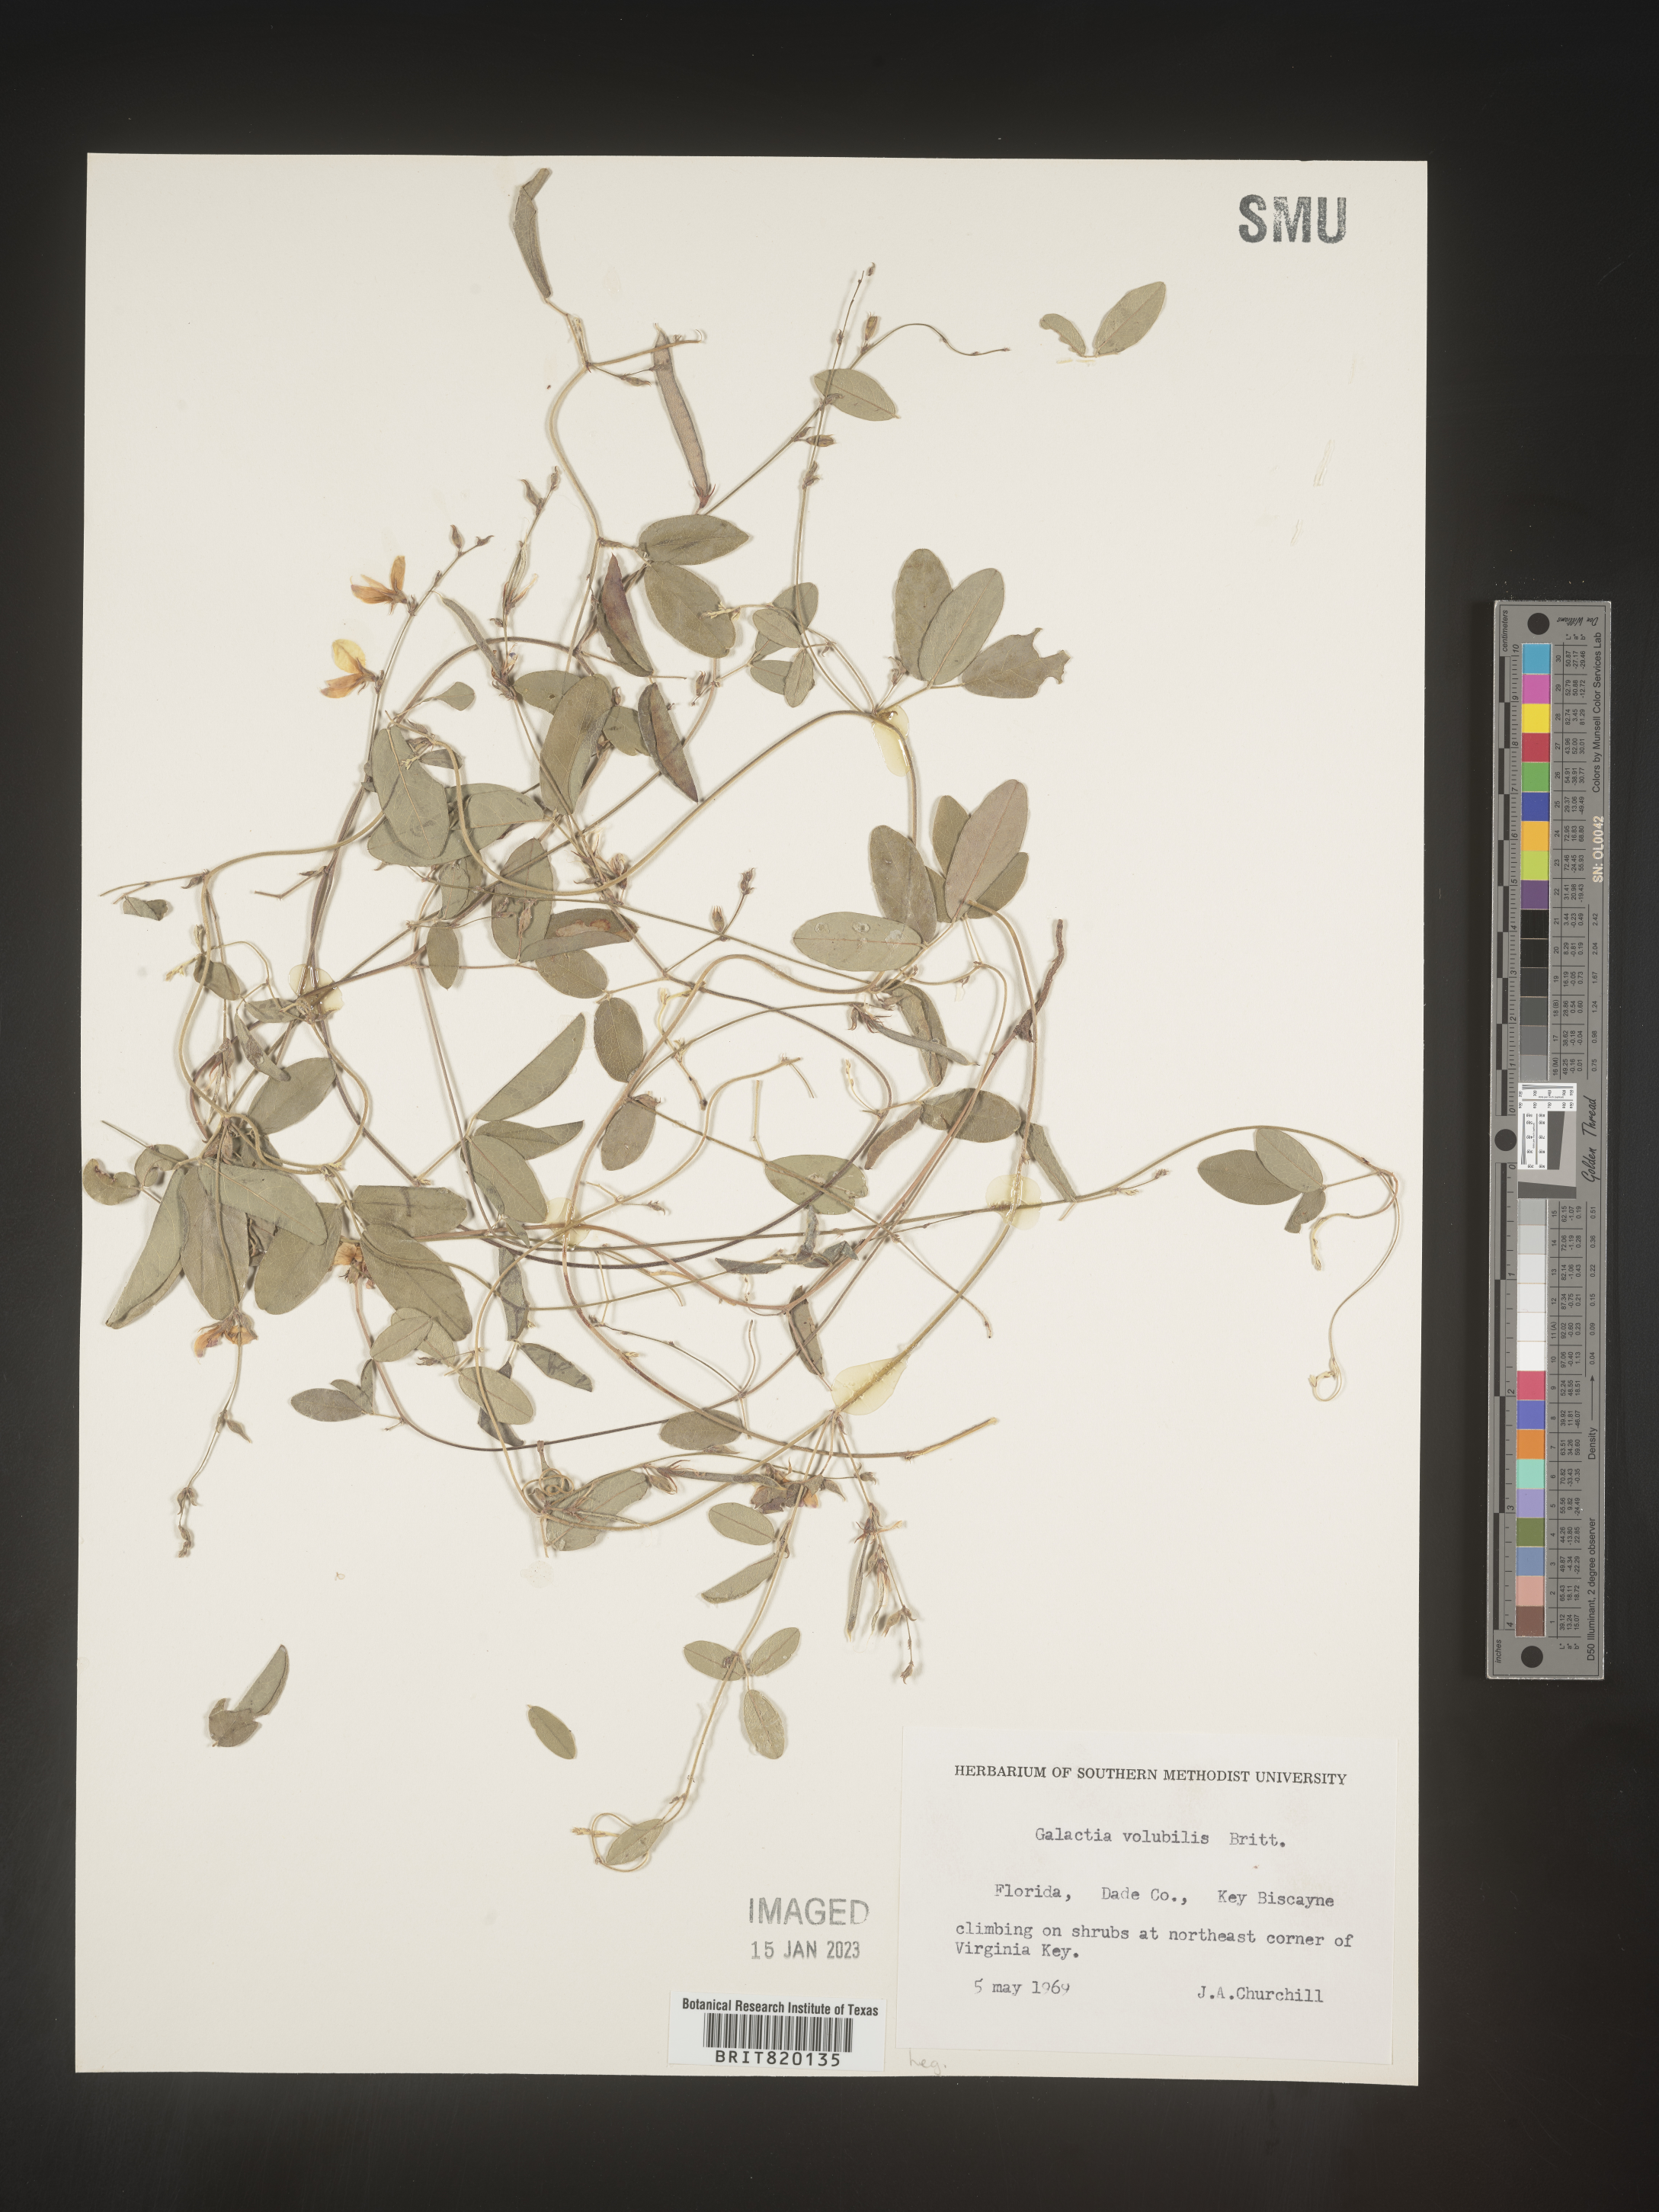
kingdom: Plantae
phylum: Tracheophyta
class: Magnoliopsida
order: Fabales
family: Fabaceae
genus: Galactia
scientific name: Galactia
